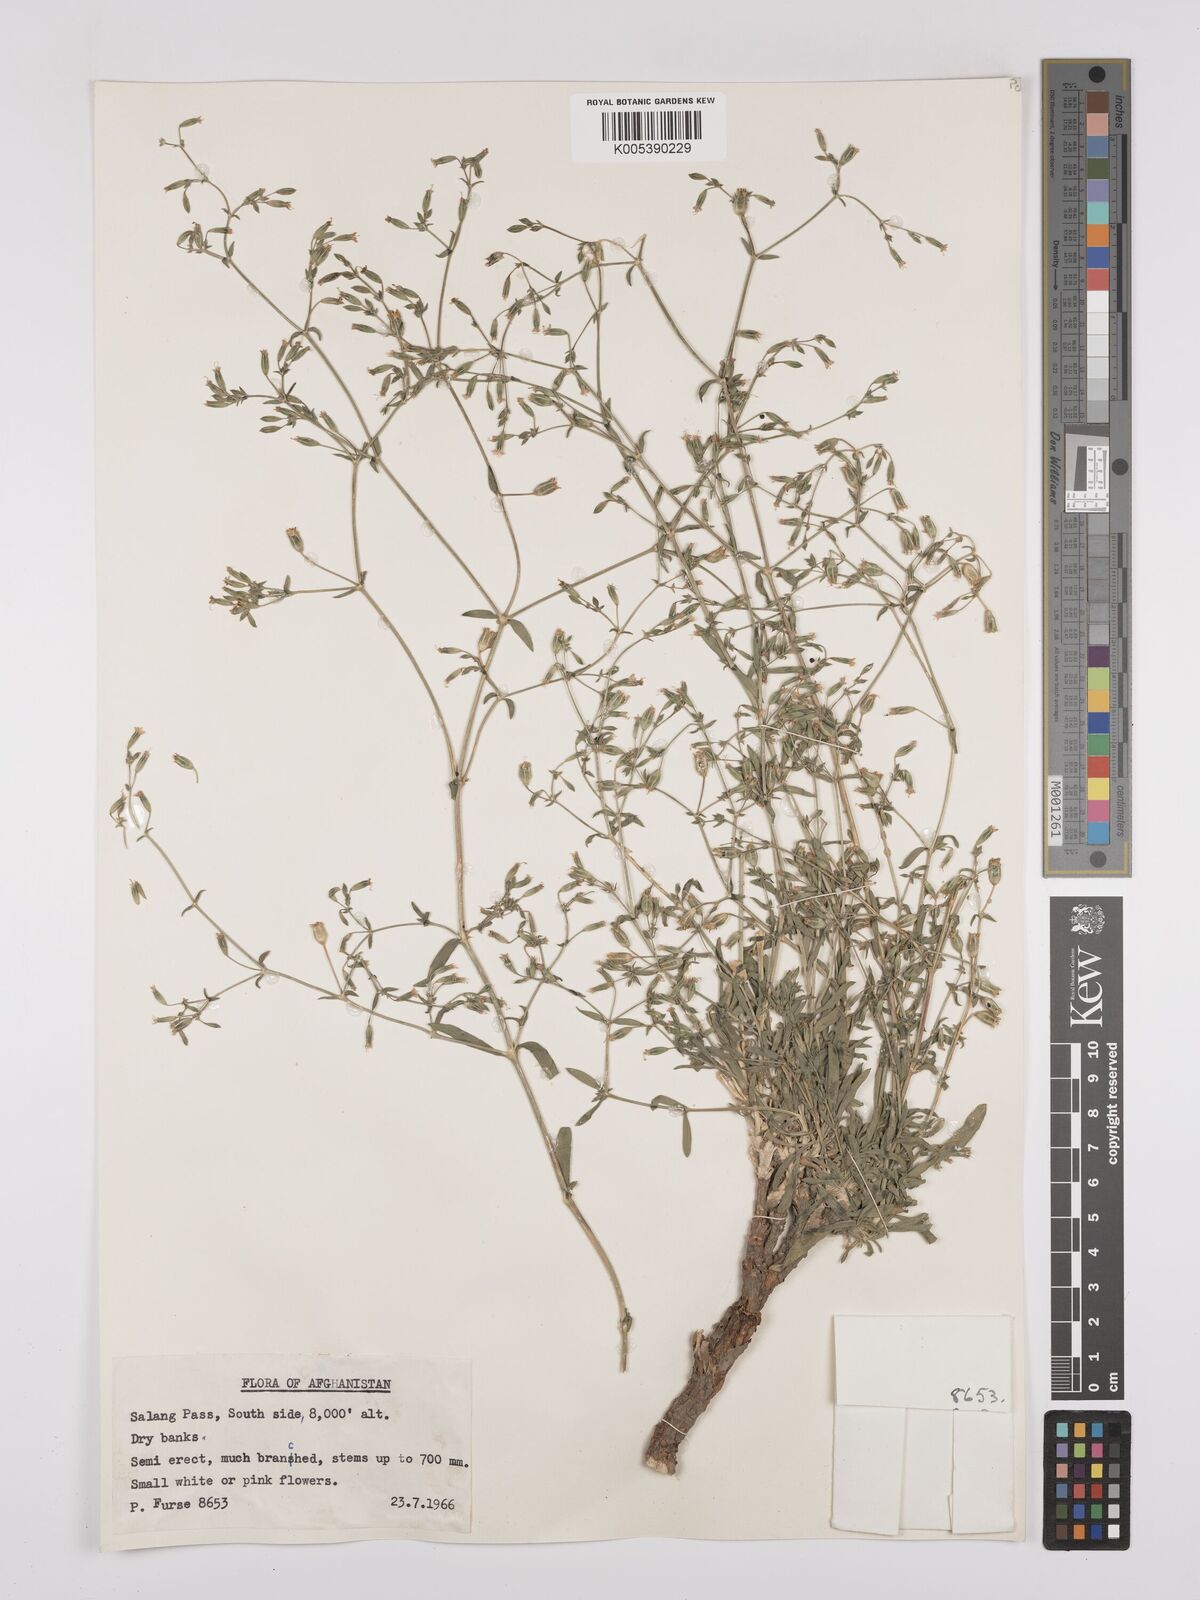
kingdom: Plantae
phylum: Tracheophyta
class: Magnoliopsida
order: Caryophyllales
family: Caryophyllaceae
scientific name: Caryophyllaceae
